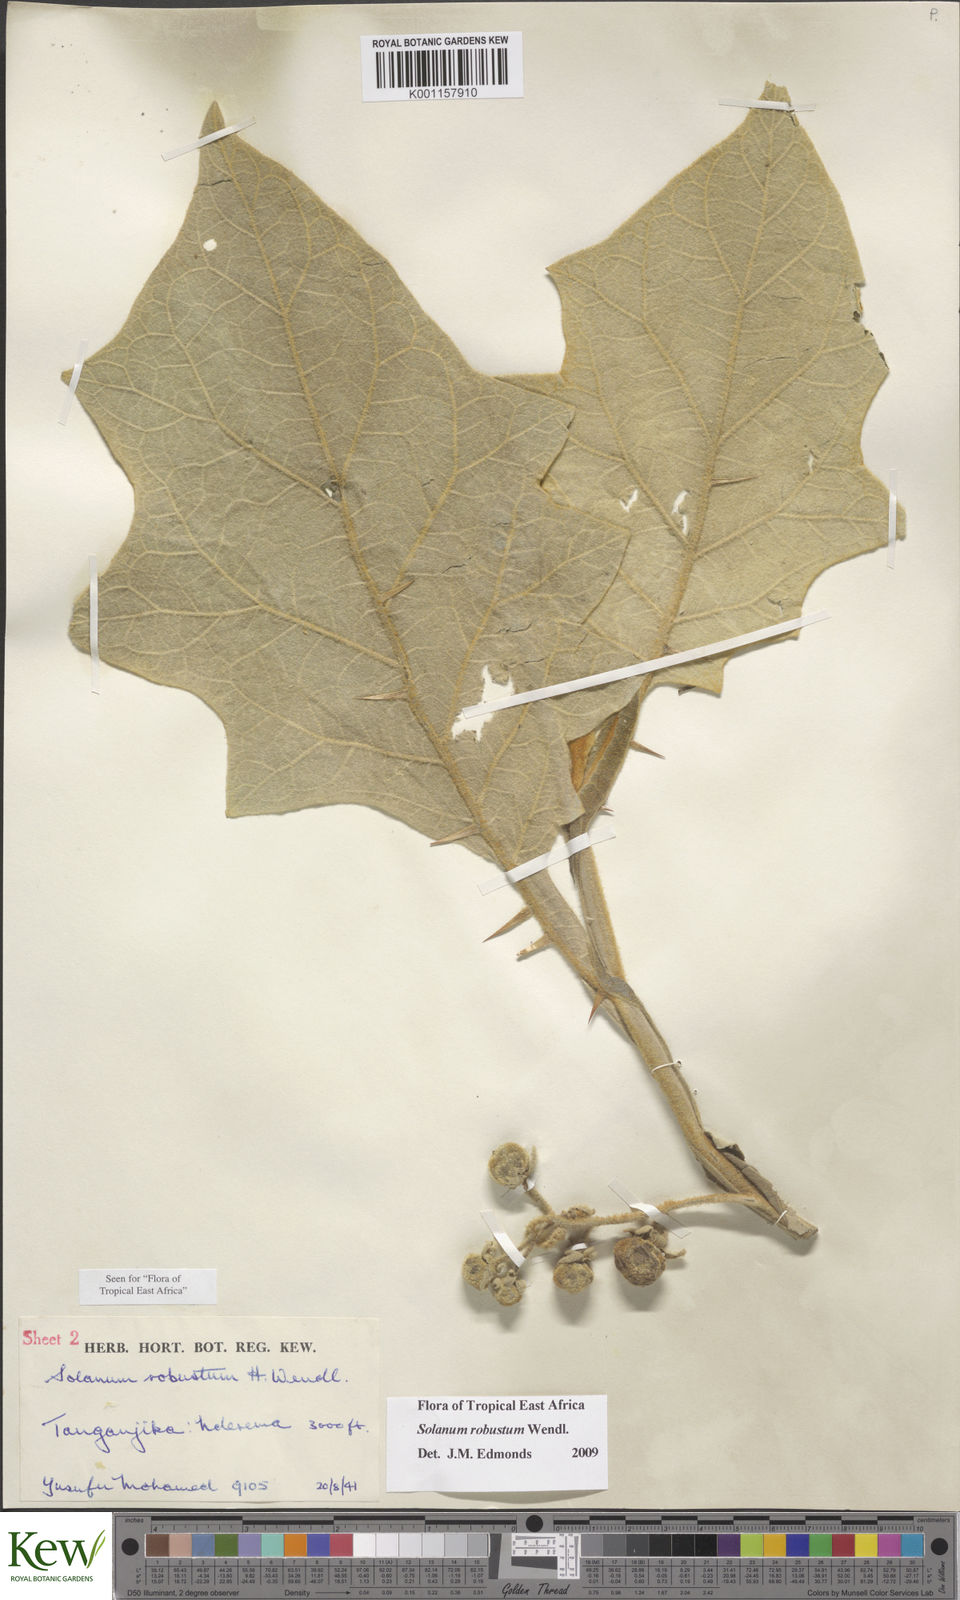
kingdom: Plantae
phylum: Tracheophyta
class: Magnoliopsida
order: Solanales
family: Solanaceae
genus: Solanum
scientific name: Solanum robustum
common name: Shrubby nightshade
